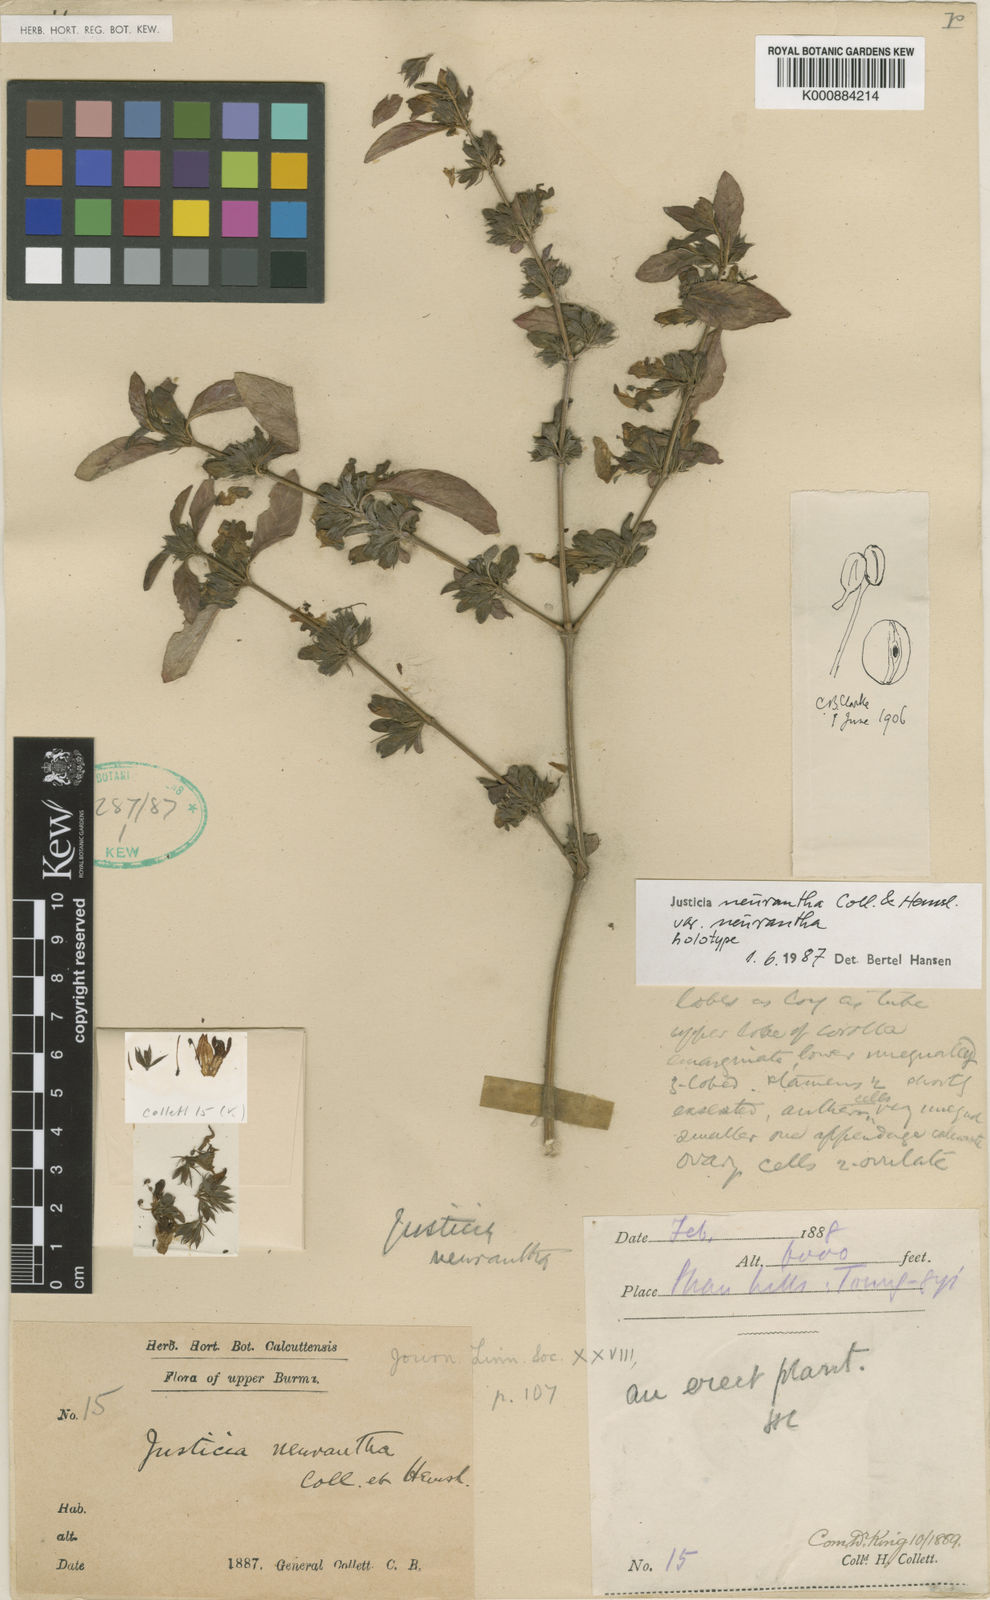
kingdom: Plantae
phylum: Tracheophyta
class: Magnoliopsida
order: Lamiales
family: Acanthaceae
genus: Justicia
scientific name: Justicia neurantha
